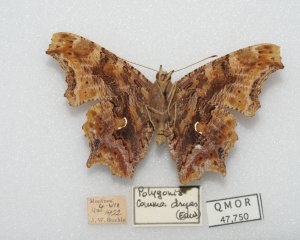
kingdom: Animalia
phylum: Arthropoda
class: Insecta
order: Lepidoptera
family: Nymphalidae
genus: Polygonia
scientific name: Polygonia comma
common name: Eastern Comma
